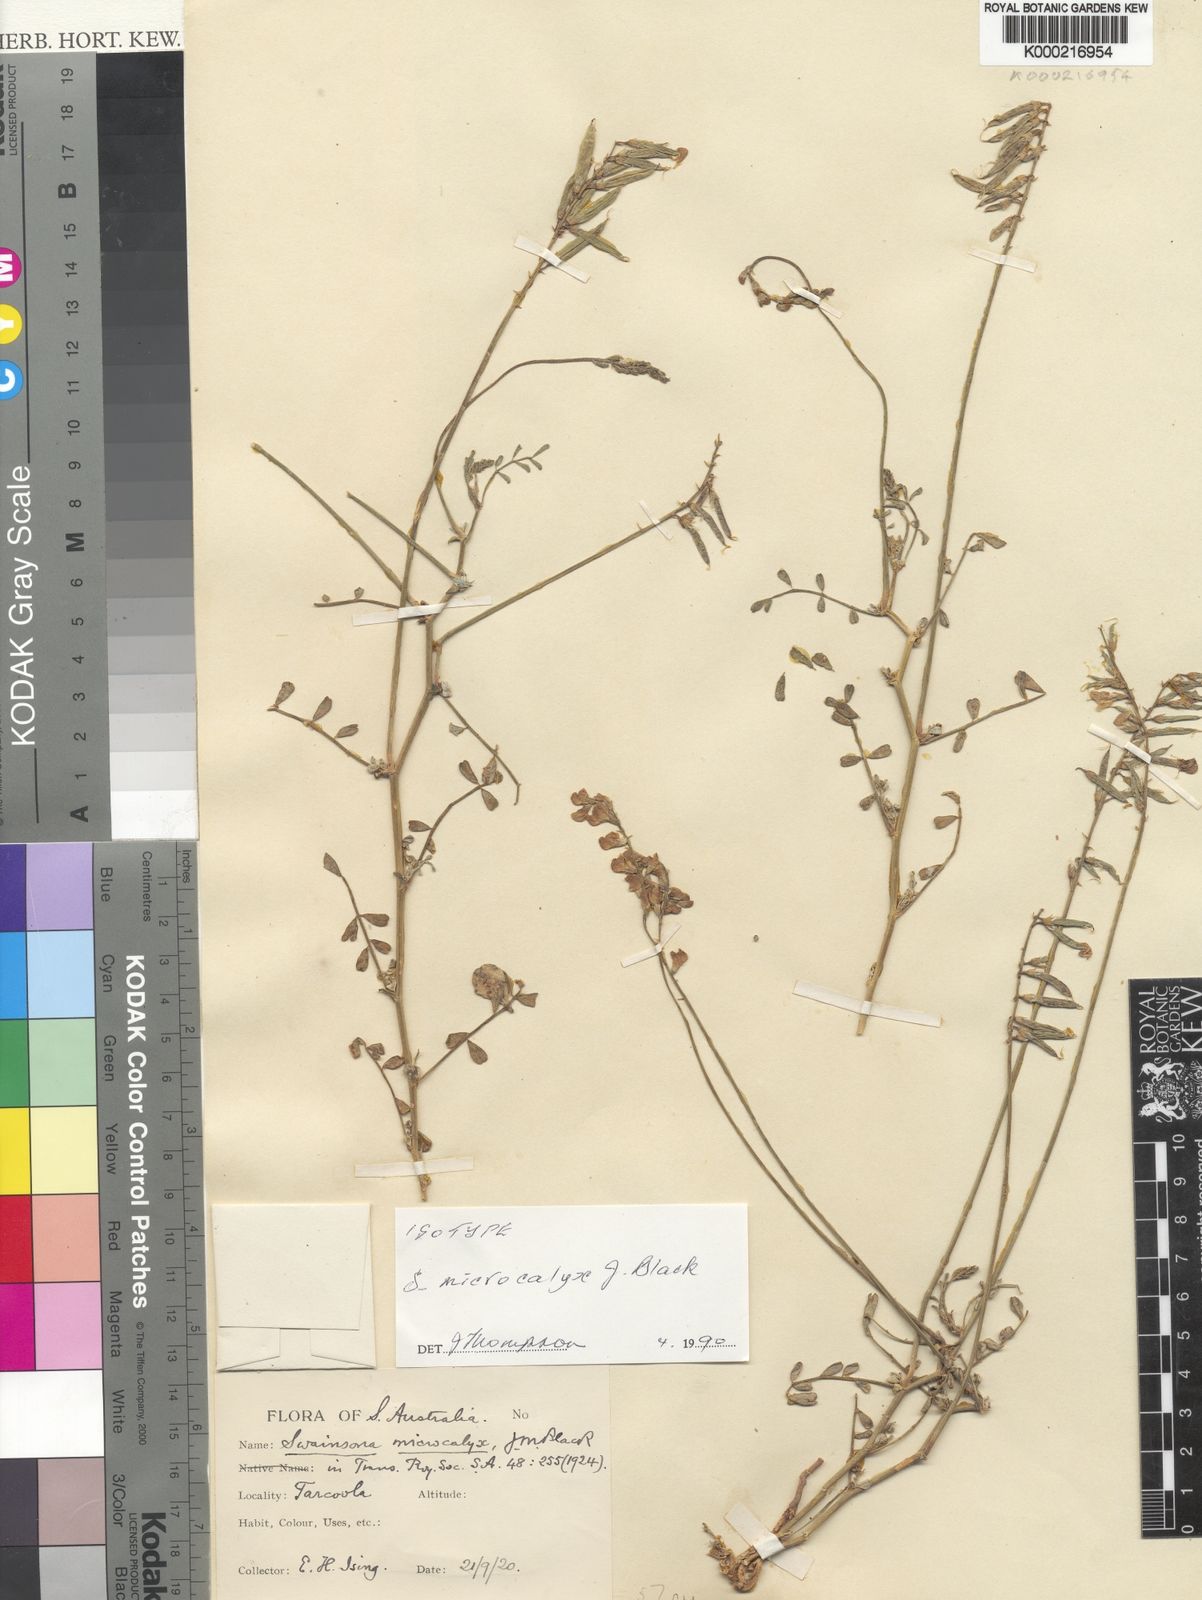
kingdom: Plantae
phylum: Tracheophyta
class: Magnoliopsida
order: Fabales
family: Fabaceae
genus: Swainsona
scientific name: Swainsona microcalyx
